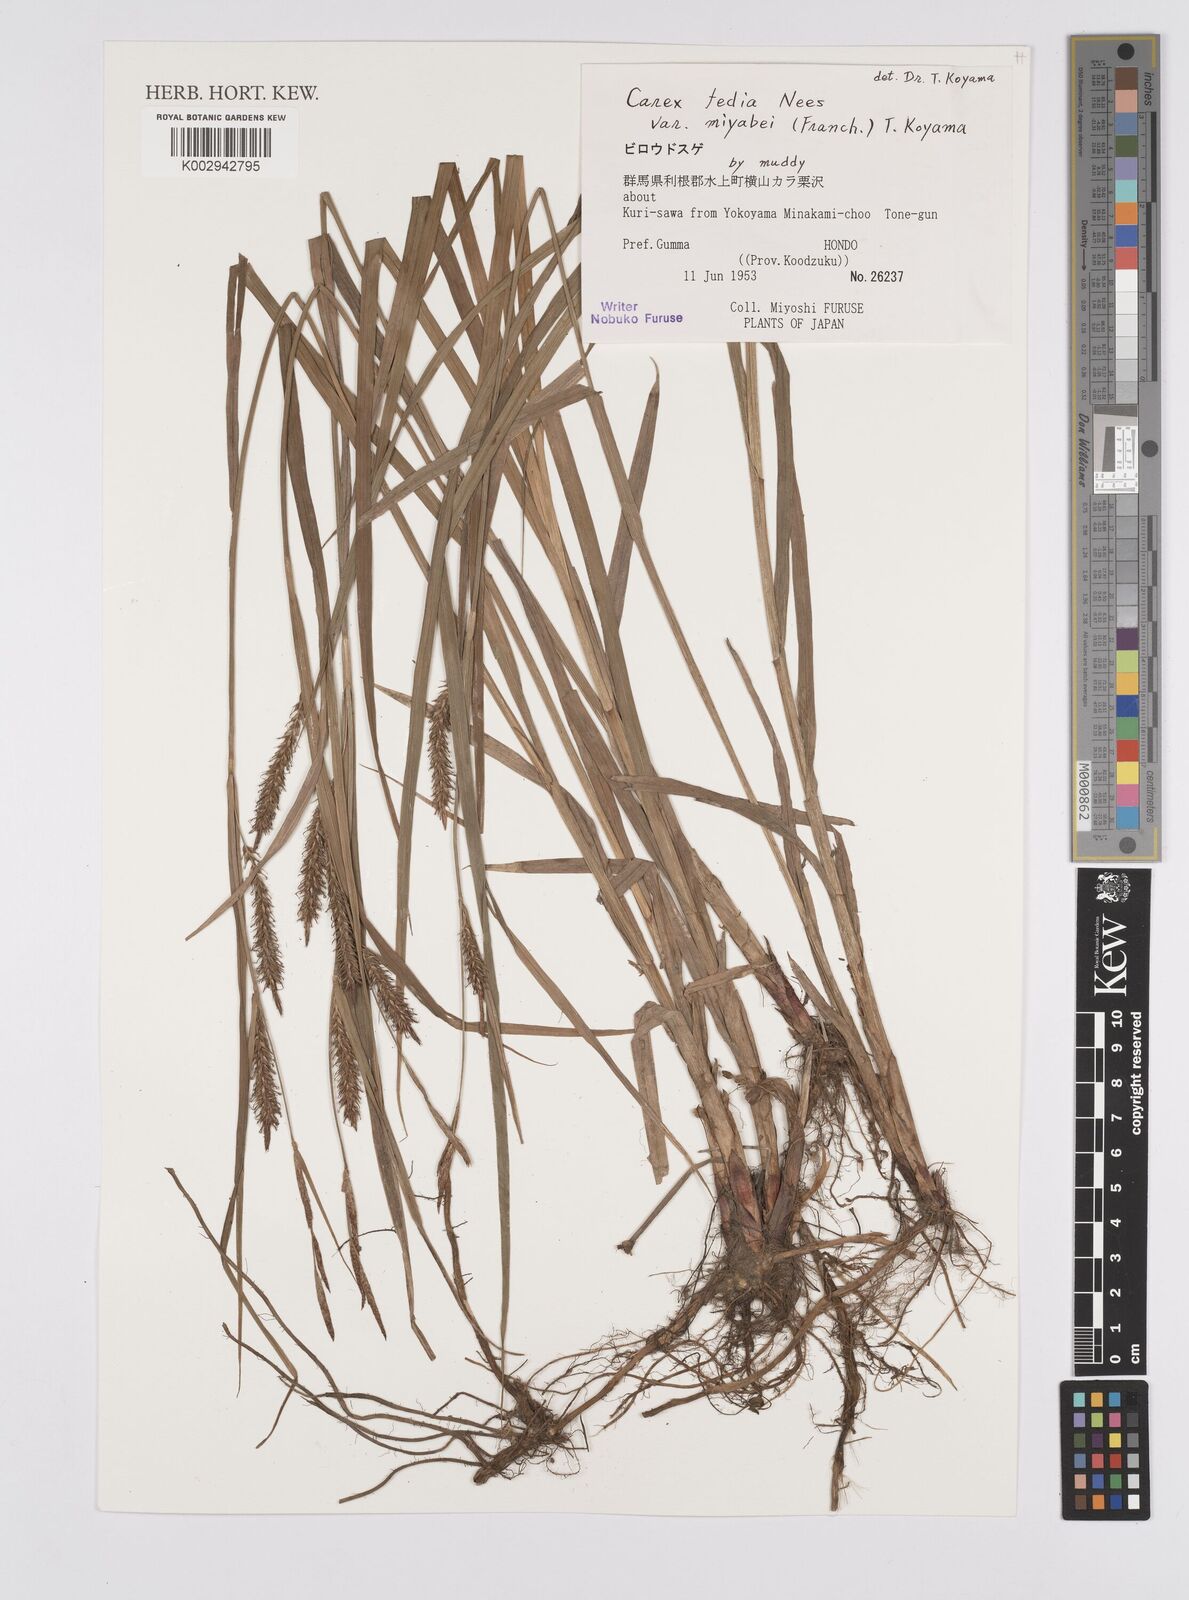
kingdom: Plantae
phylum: Tracheophyta
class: Liliopsida
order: Poales
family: Cyperaceae
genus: Carex
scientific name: Carex fedia
